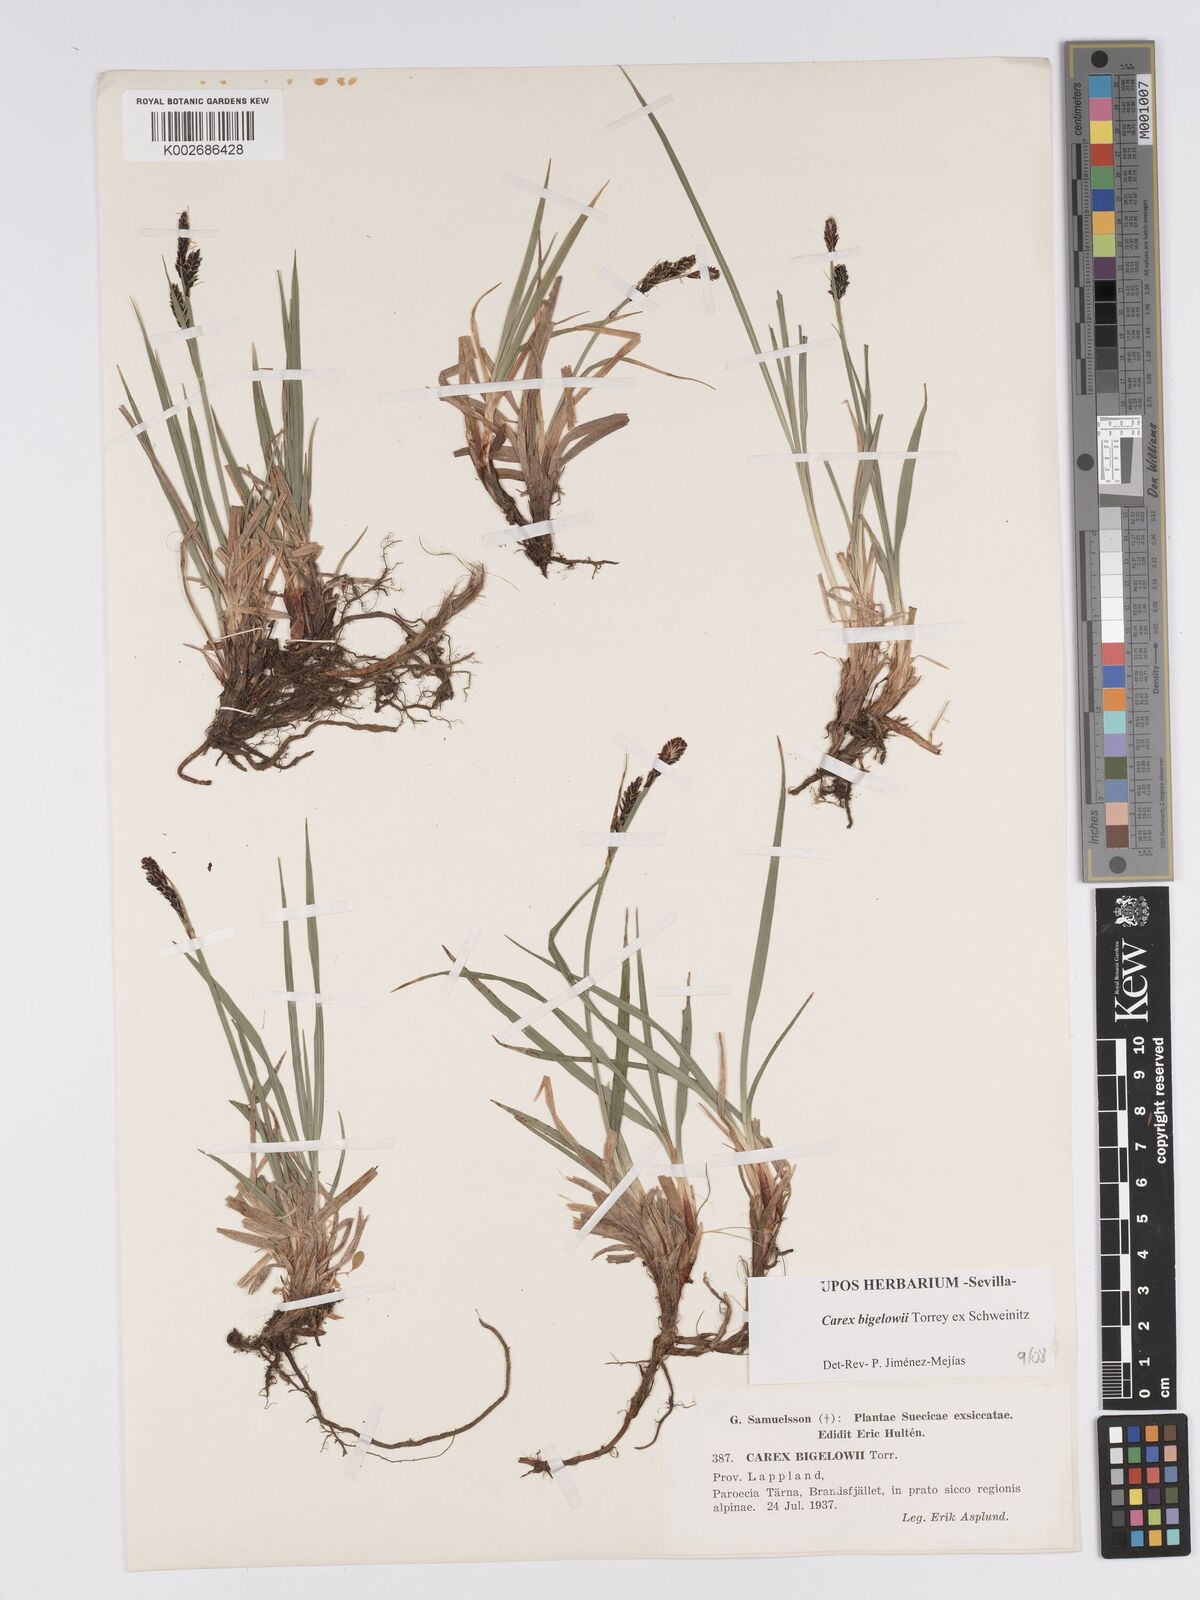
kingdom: Plantae
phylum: Tracheophyta
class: Liliopsida
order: Poales
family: Cyperaceae
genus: Carex
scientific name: Carex bigelowii
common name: Stiff sedge
